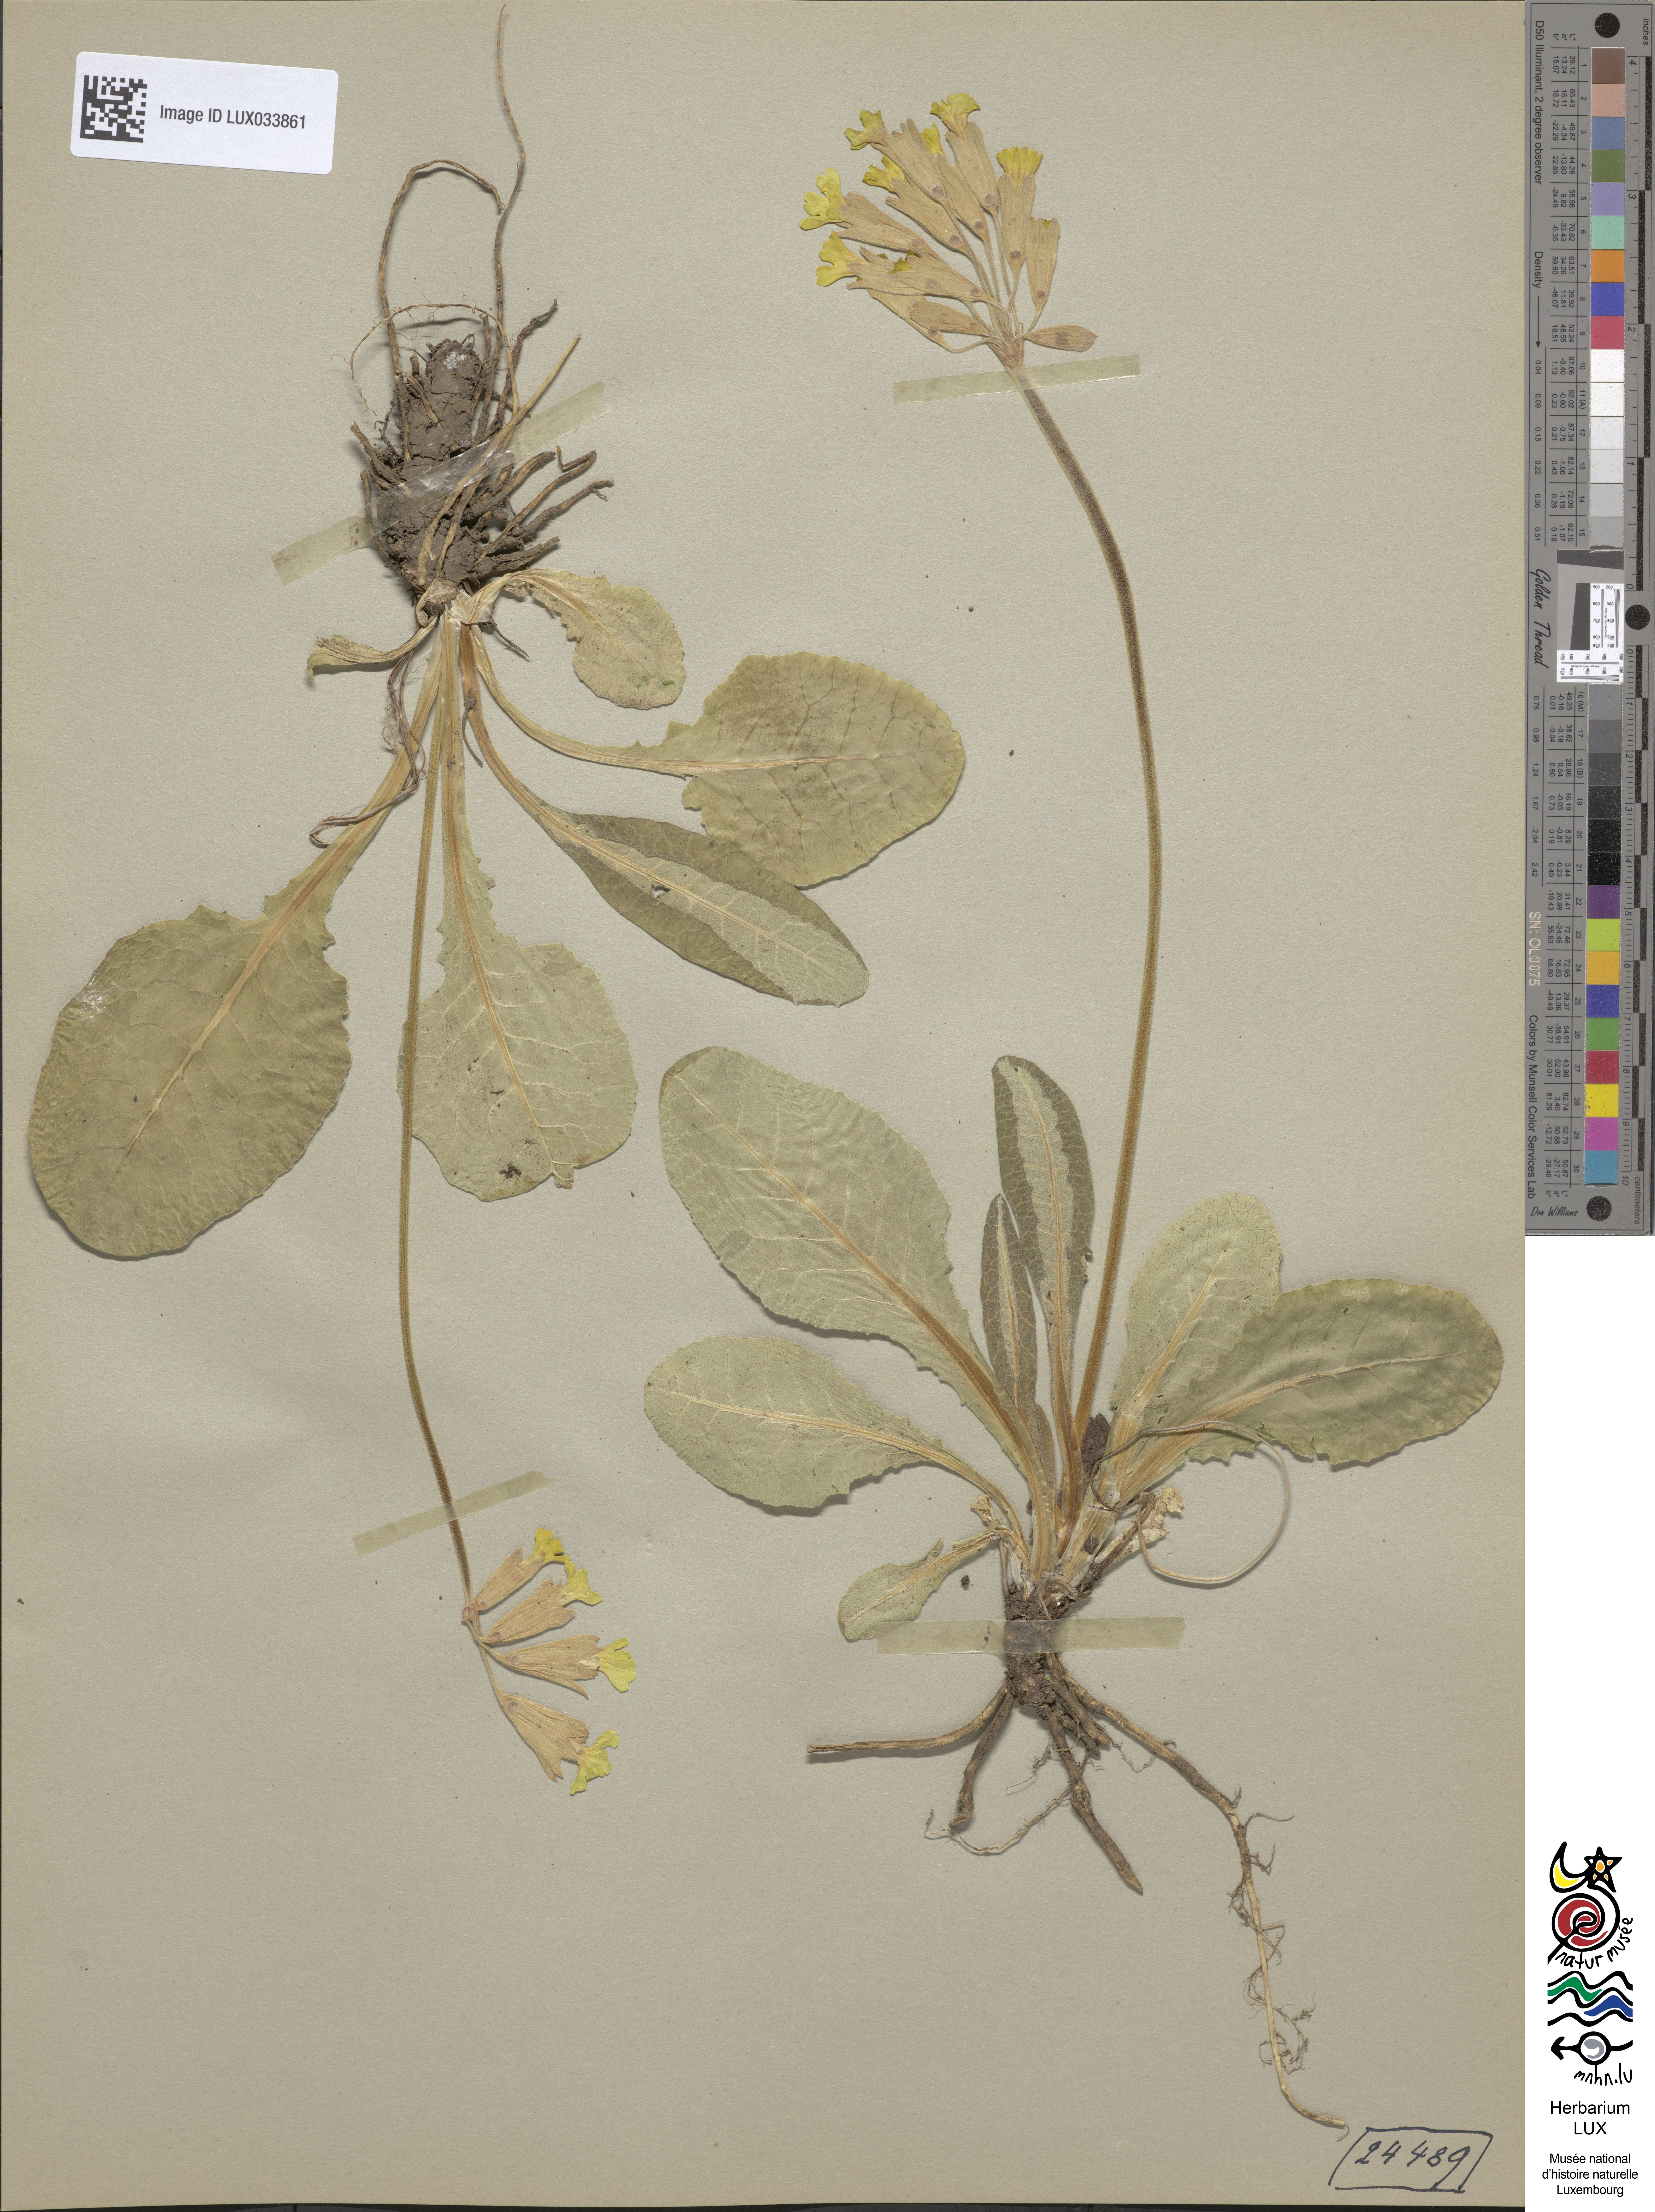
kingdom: Plantae
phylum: Tracheophyta
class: Magnoliopsida
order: Ericales
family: Primulaceae
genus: Primula
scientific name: Primula veris
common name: Cowslip
